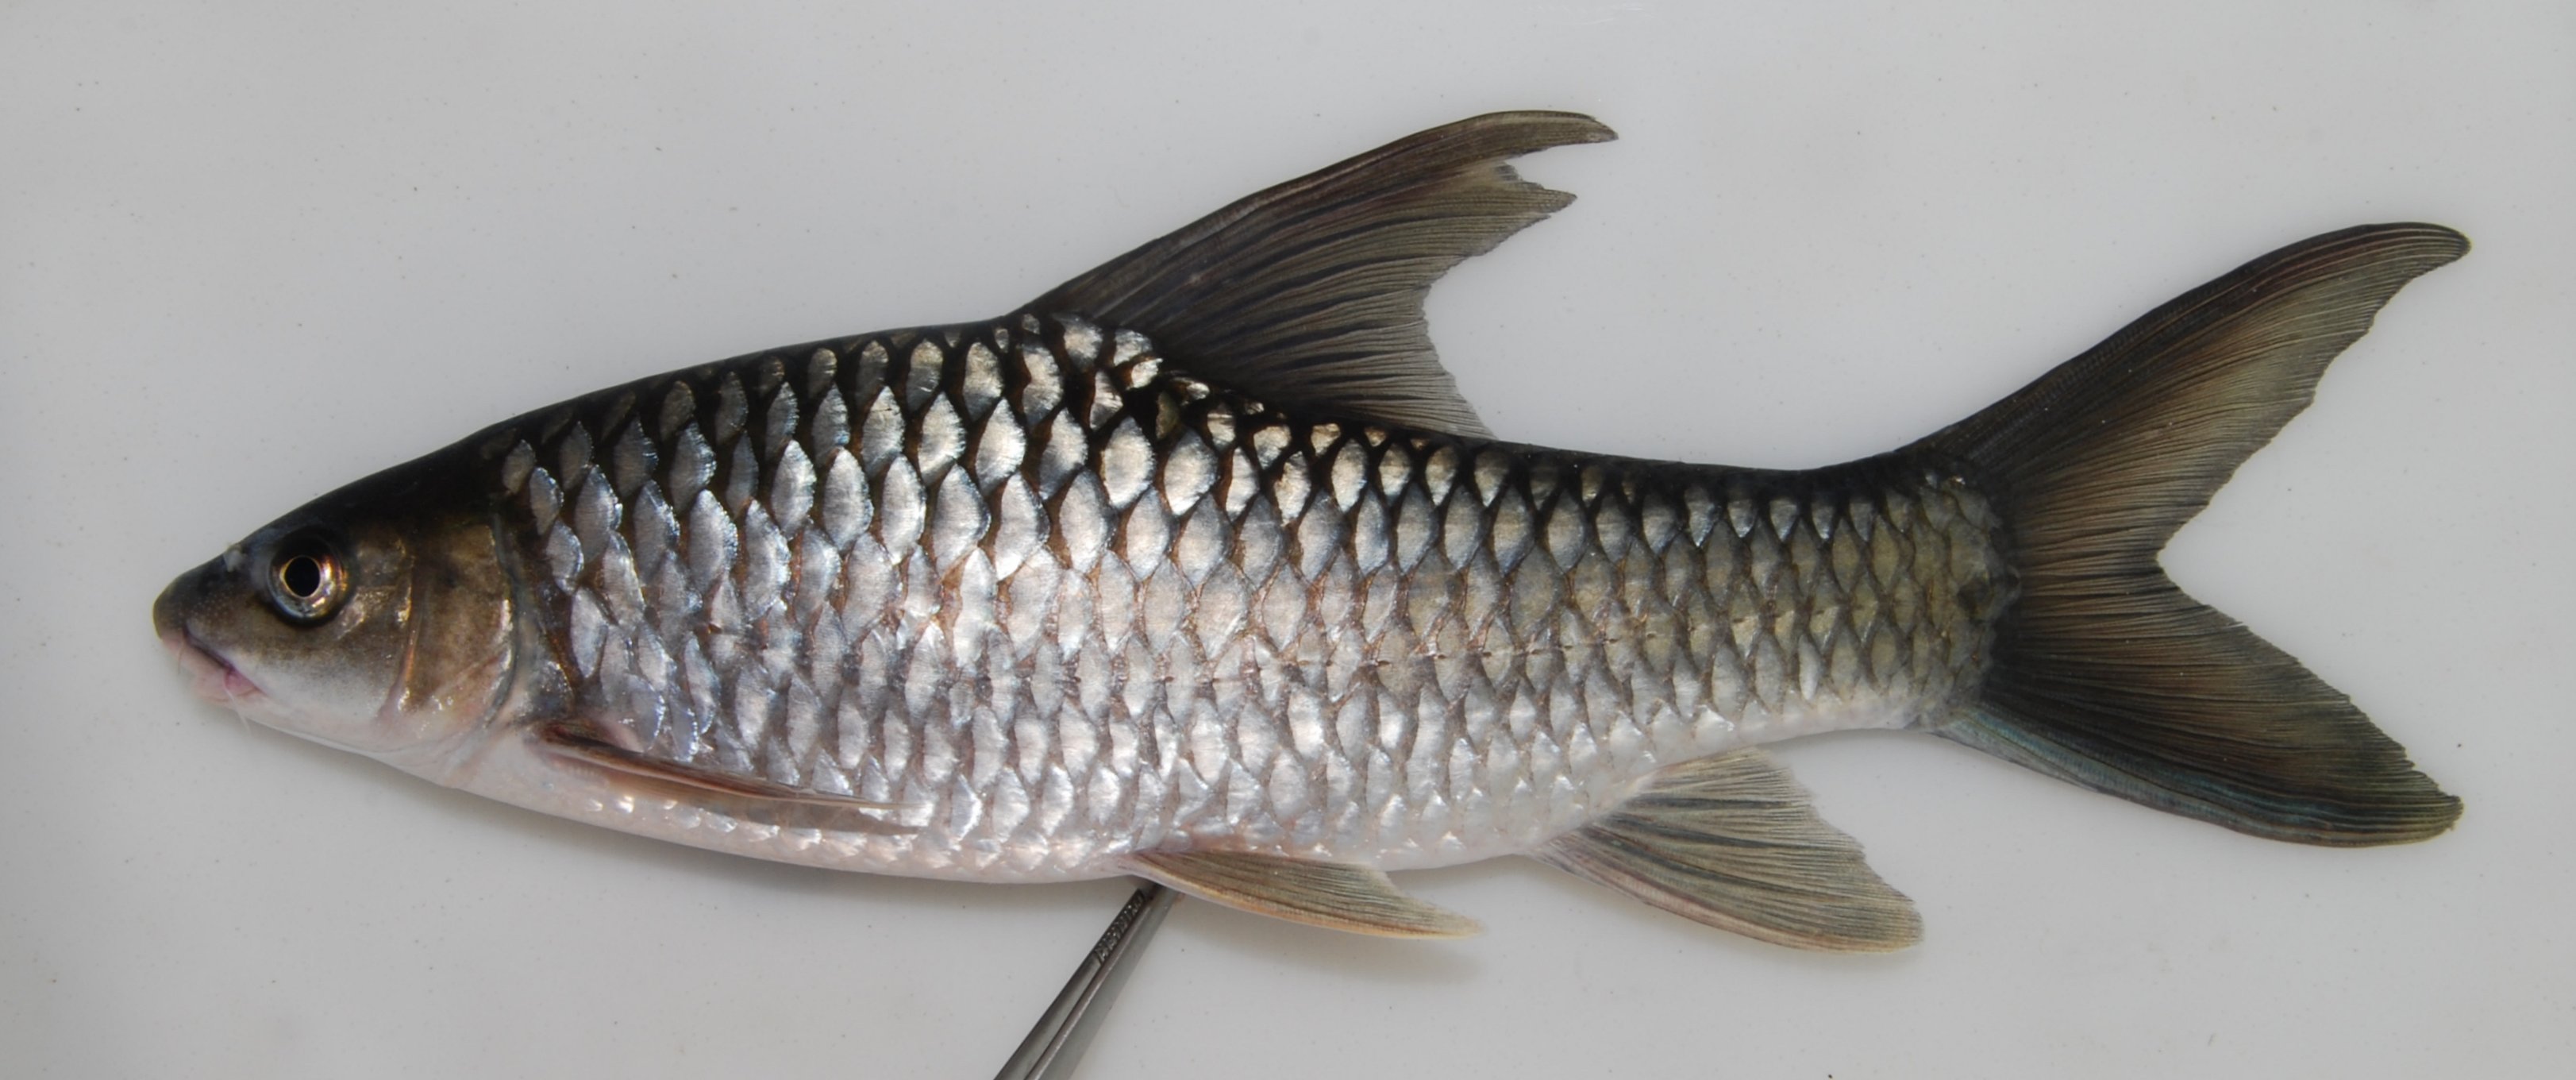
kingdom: Animalia
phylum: Chordata
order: Cypriniformes
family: Cyprinidae
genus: Labeobarbus
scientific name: Labeobarbus codringtonii
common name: Upper zambezi yellowfish
